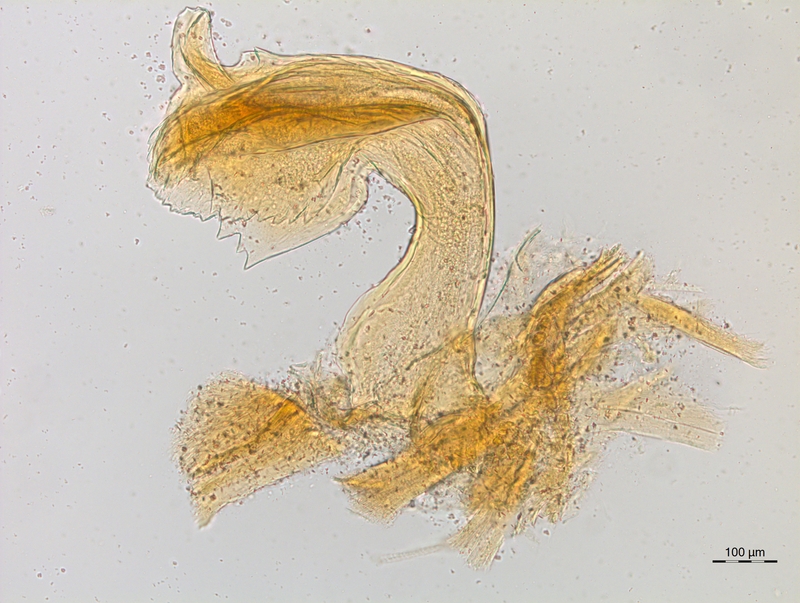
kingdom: Animalia
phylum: Arthropoda
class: Diplopoda
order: Chordeumatida
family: Craspedosomatidae
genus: Craspedosoma
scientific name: Craspedosoma taurinorum
